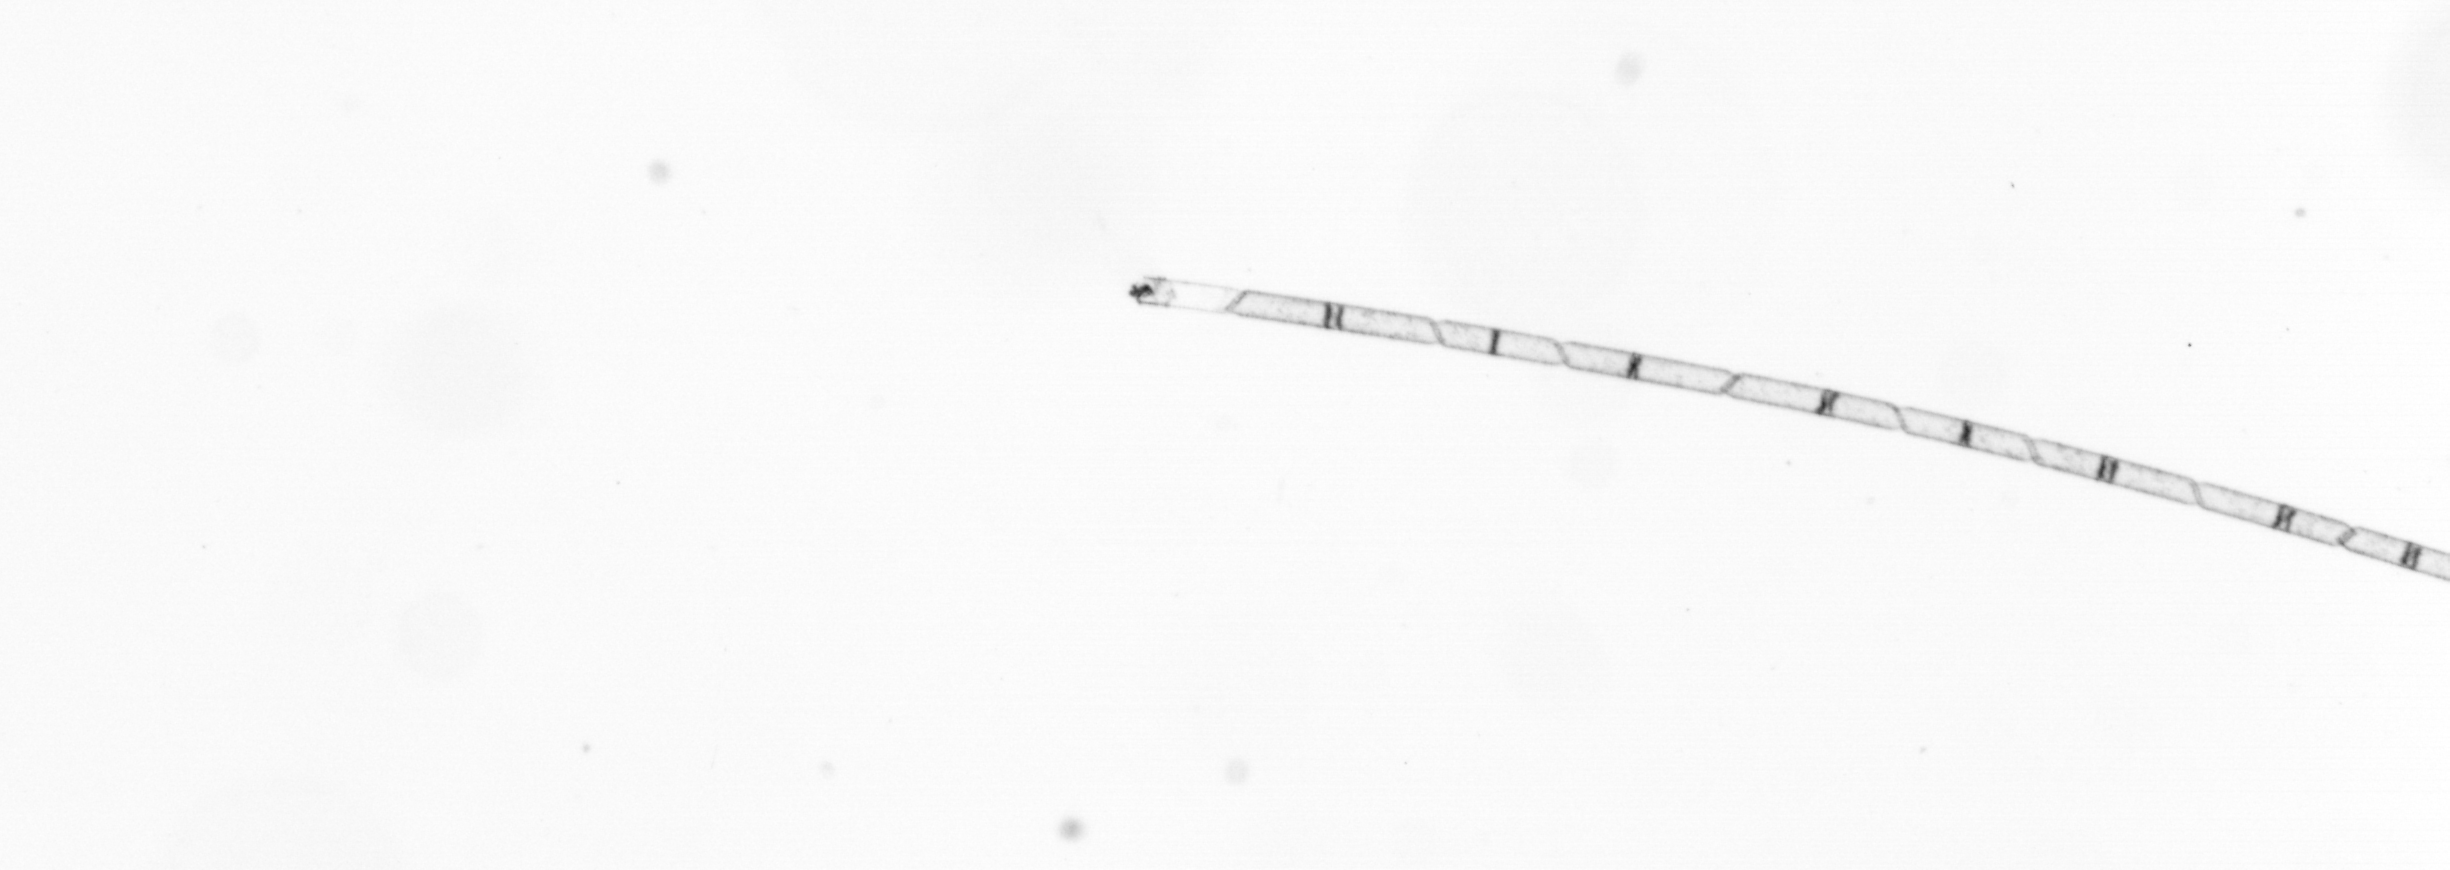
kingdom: Chromista
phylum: Ochrophyta
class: Bacillariophyceae
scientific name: Bacillariophyceae
